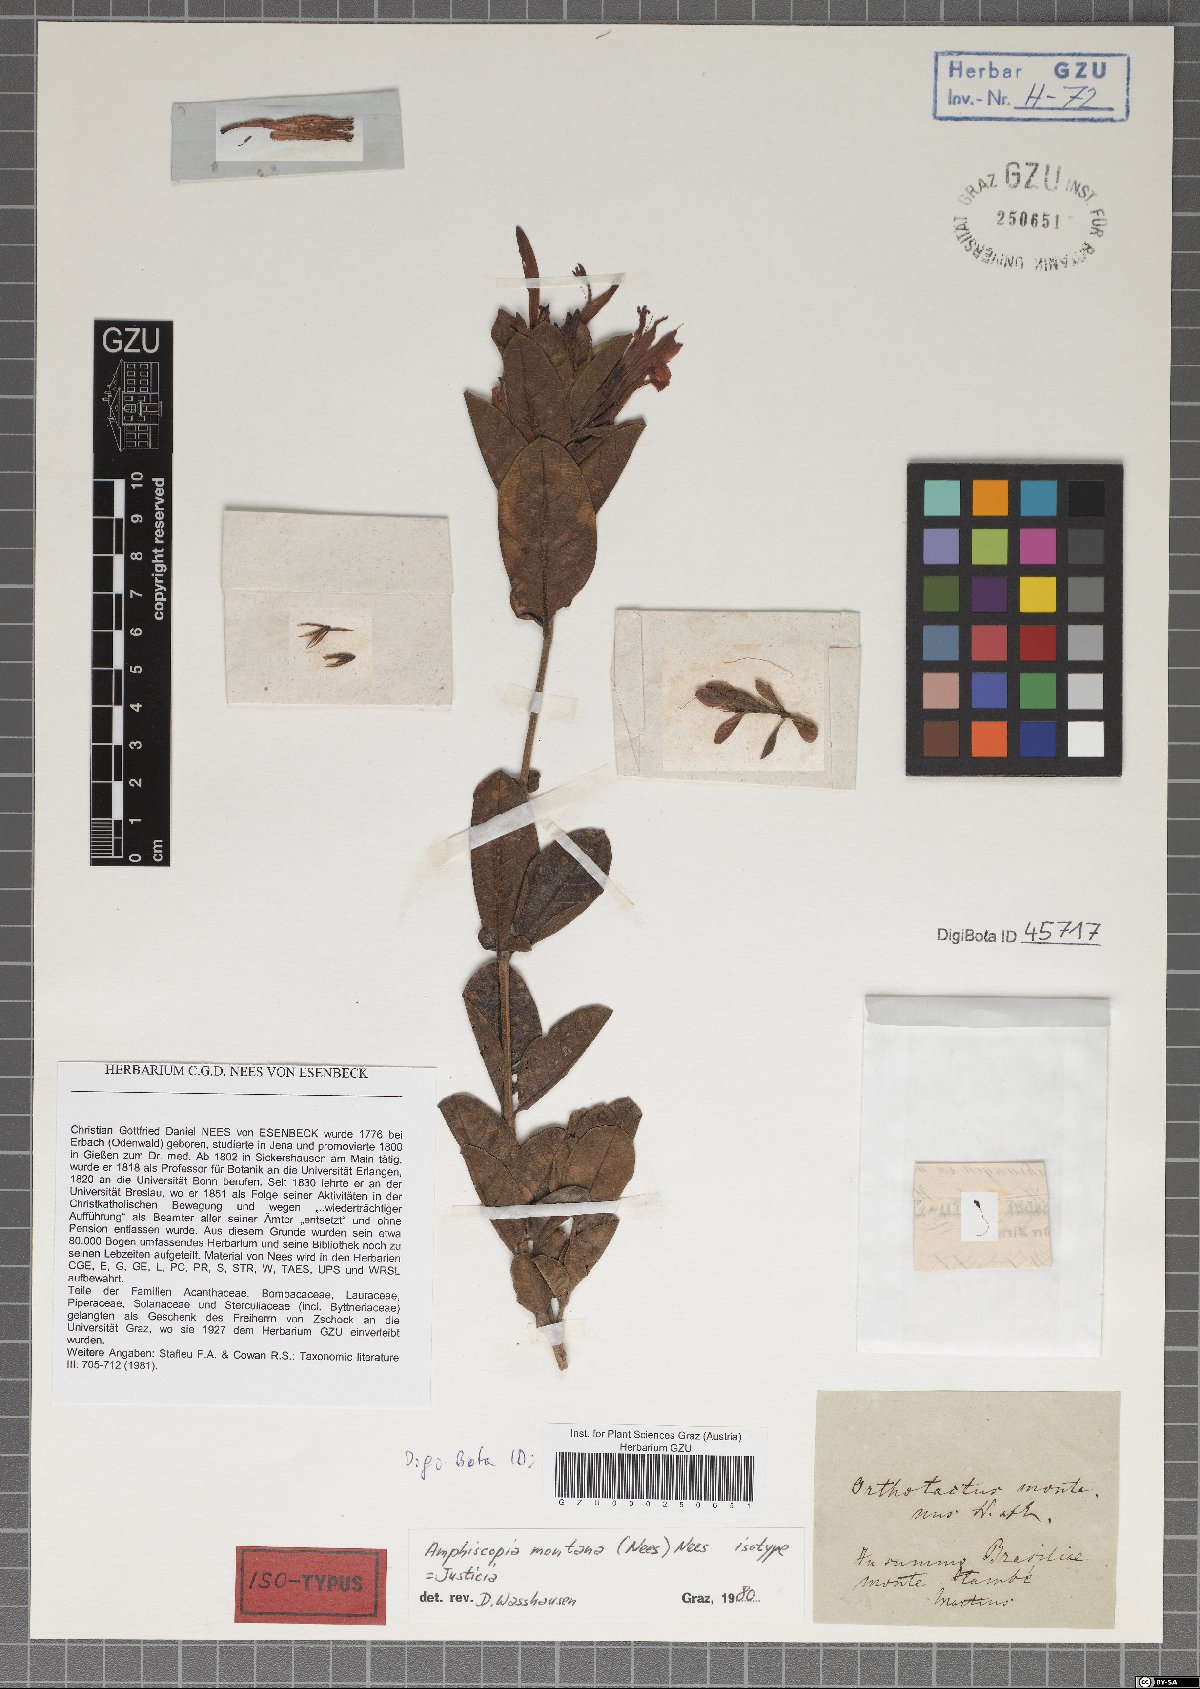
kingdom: Plantae
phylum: Tracheophyta
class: Magnoliopsida
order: Lamiales
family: Acanthaceae
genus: Justicia
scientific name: Justicia serrana
